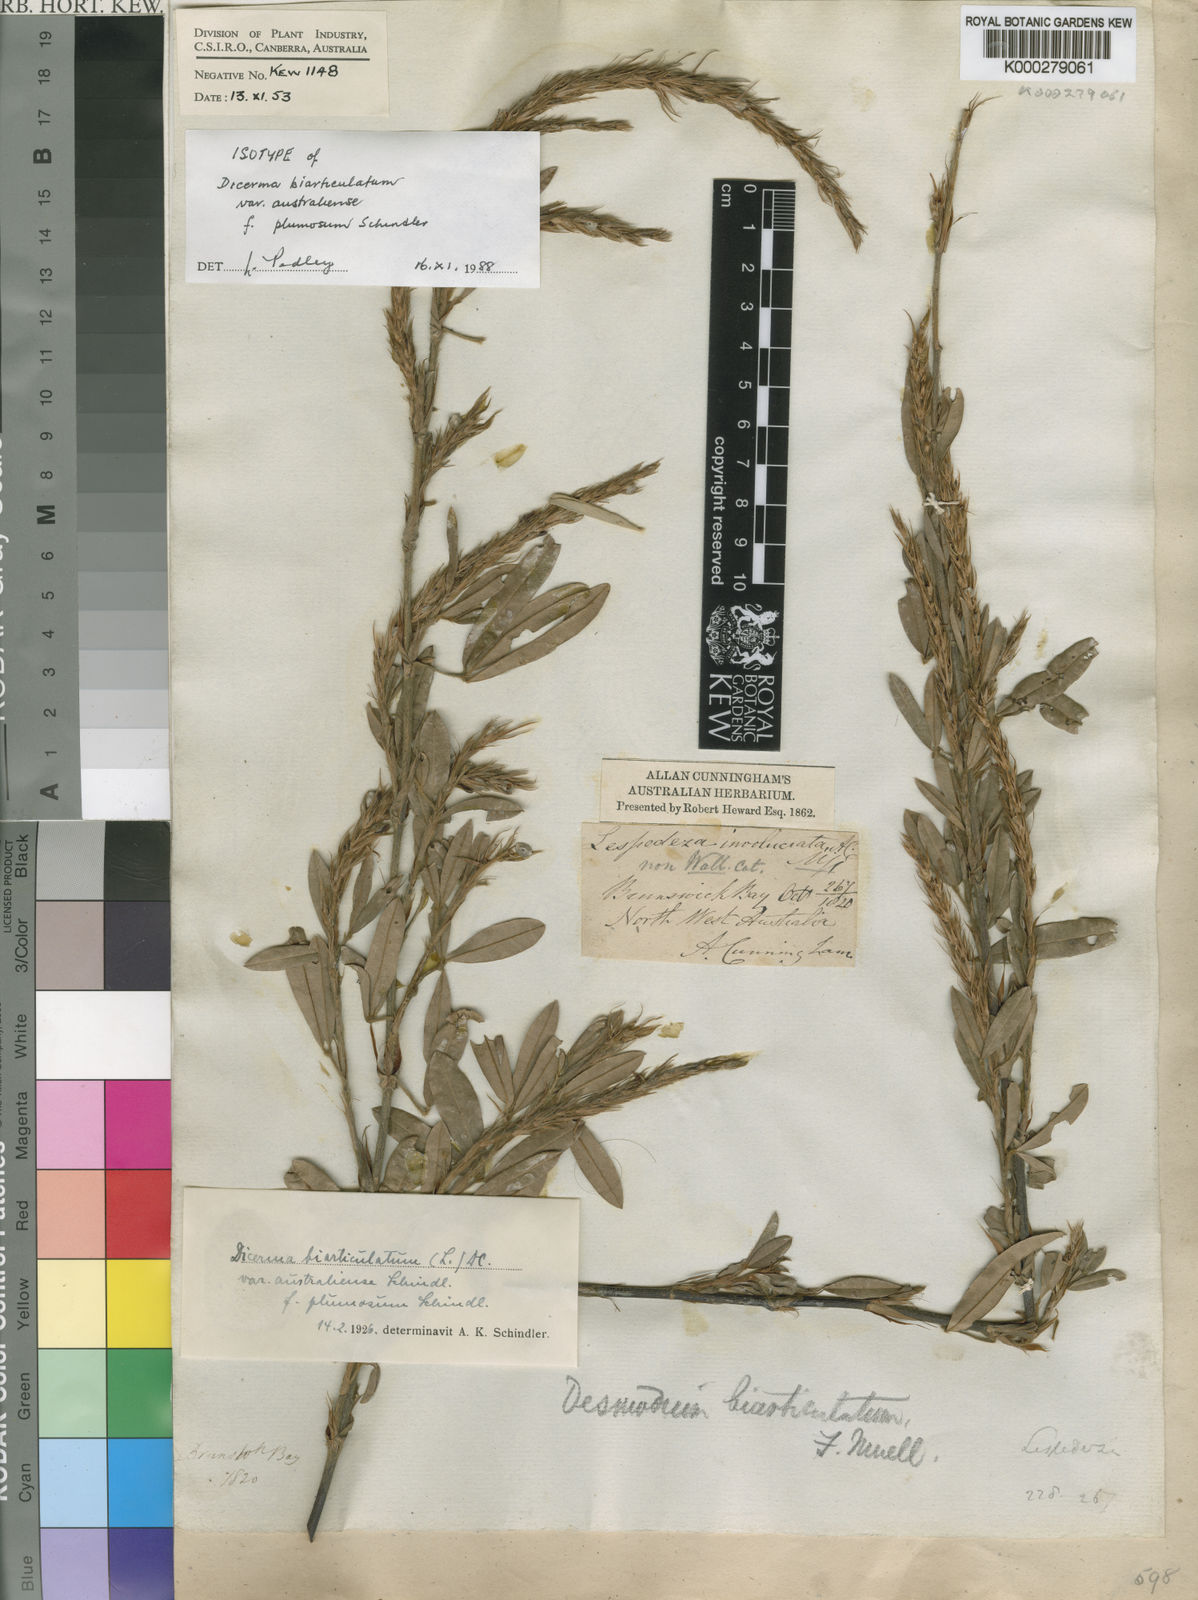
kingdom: Plantae
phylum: Tracheophyta
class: Magnoliopsida
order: Fabales
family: Fabaceae
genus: Aphyllodium
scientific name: Aphyllodium biarticulatum
